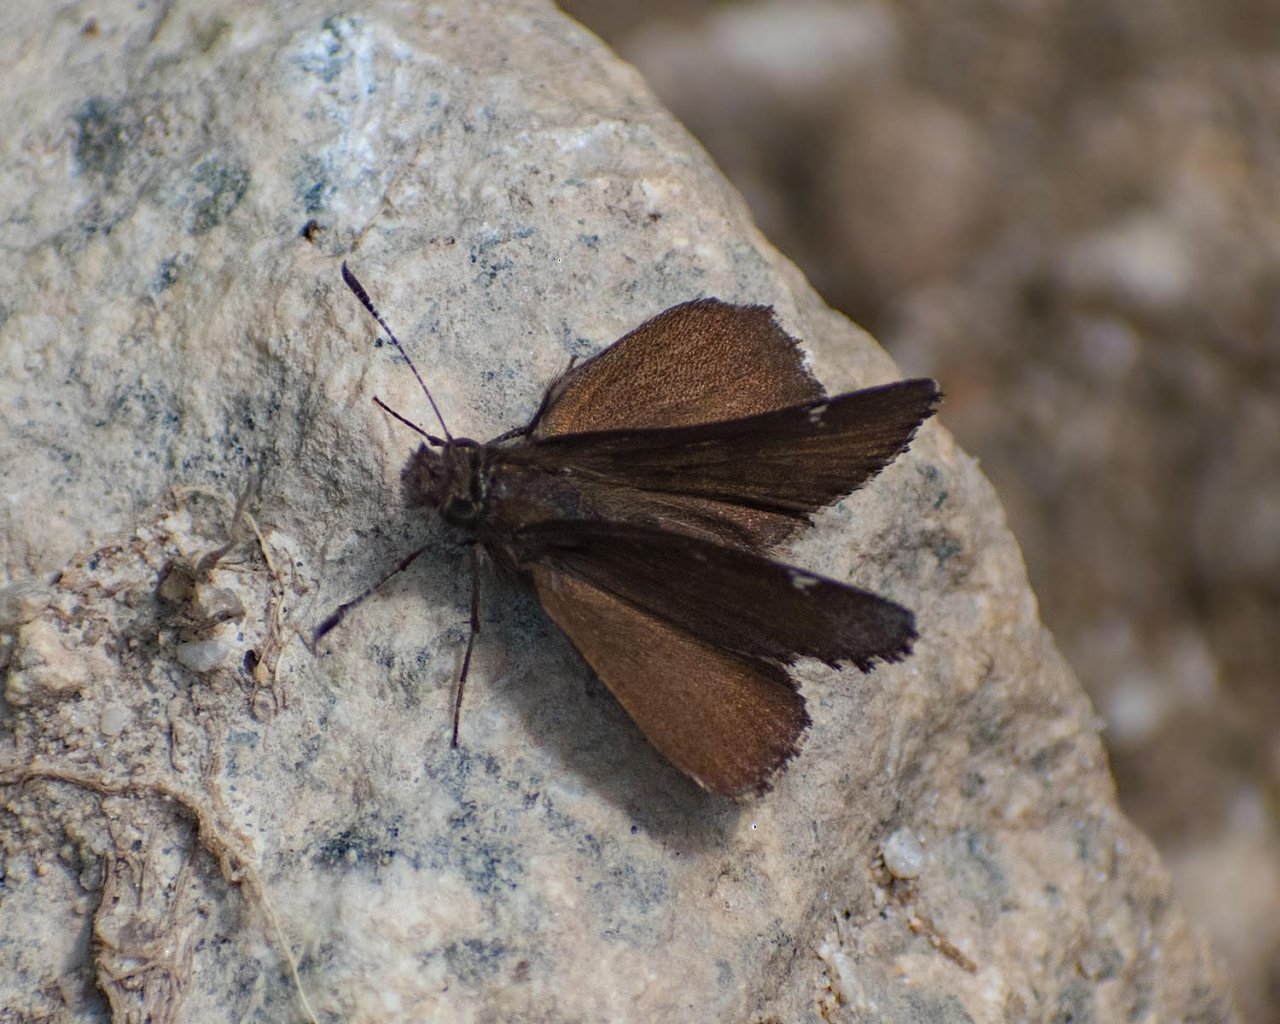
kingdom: Animalia
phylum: Arthropoda
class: Insecta
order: Lepidoptera
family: Hesperiidae
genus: Mastor
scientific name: Mastor vialis
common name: Common Roadside-Skipper
